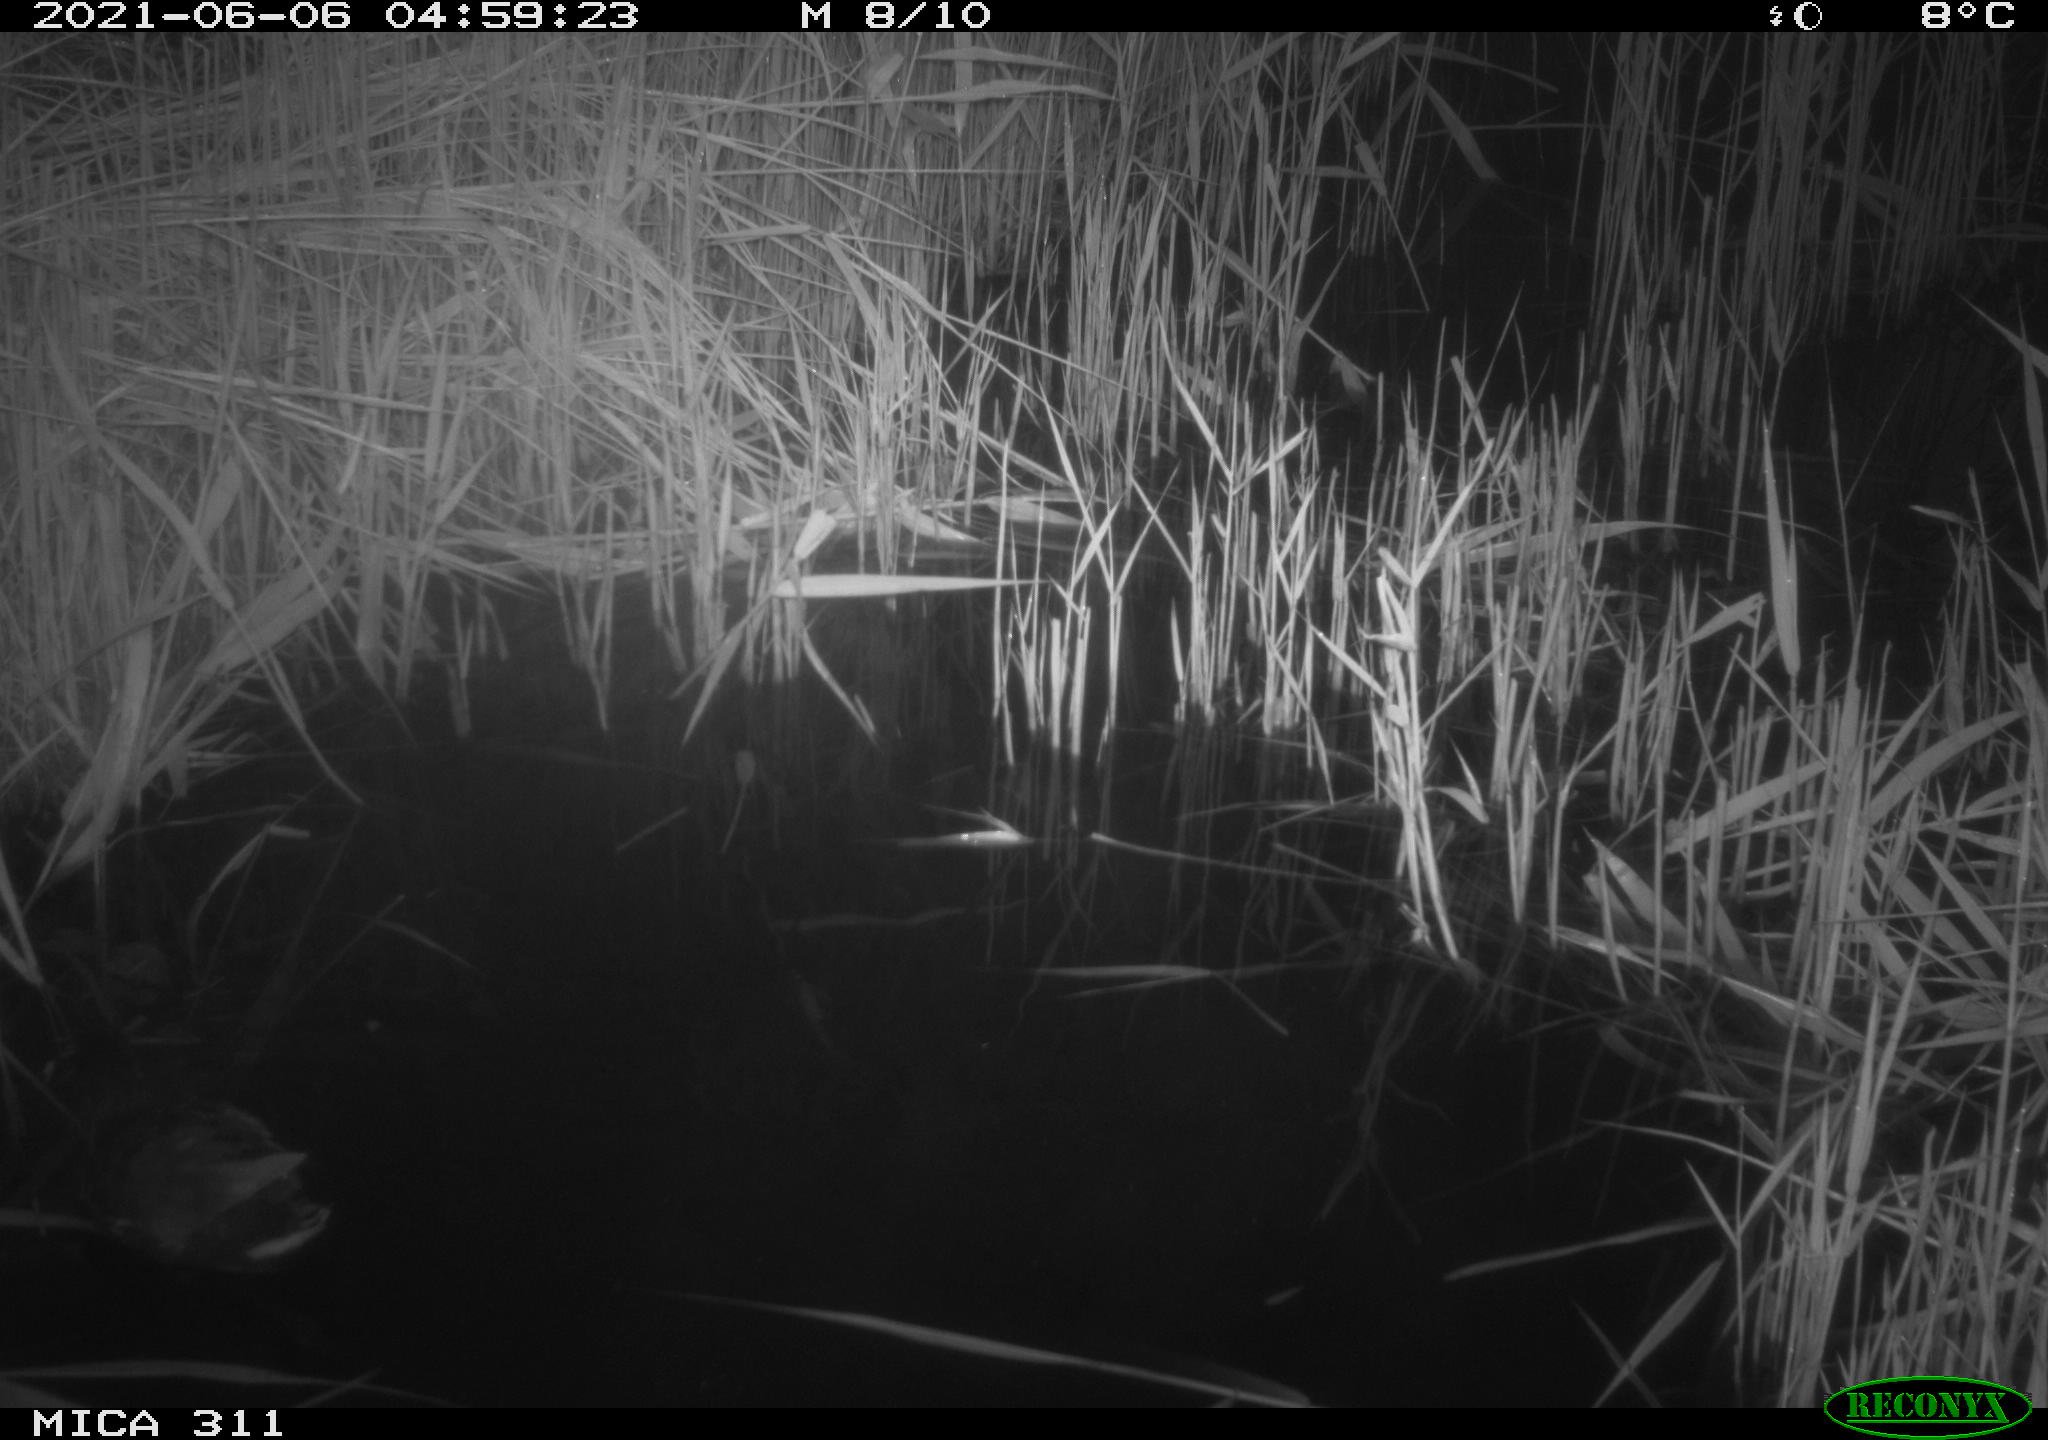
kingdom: Animalia
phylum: Chordata
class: Aves
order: Gruiformes
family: Rallidae
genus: Gallinula
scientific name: Gallinula chloropus
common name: Common moorhen
